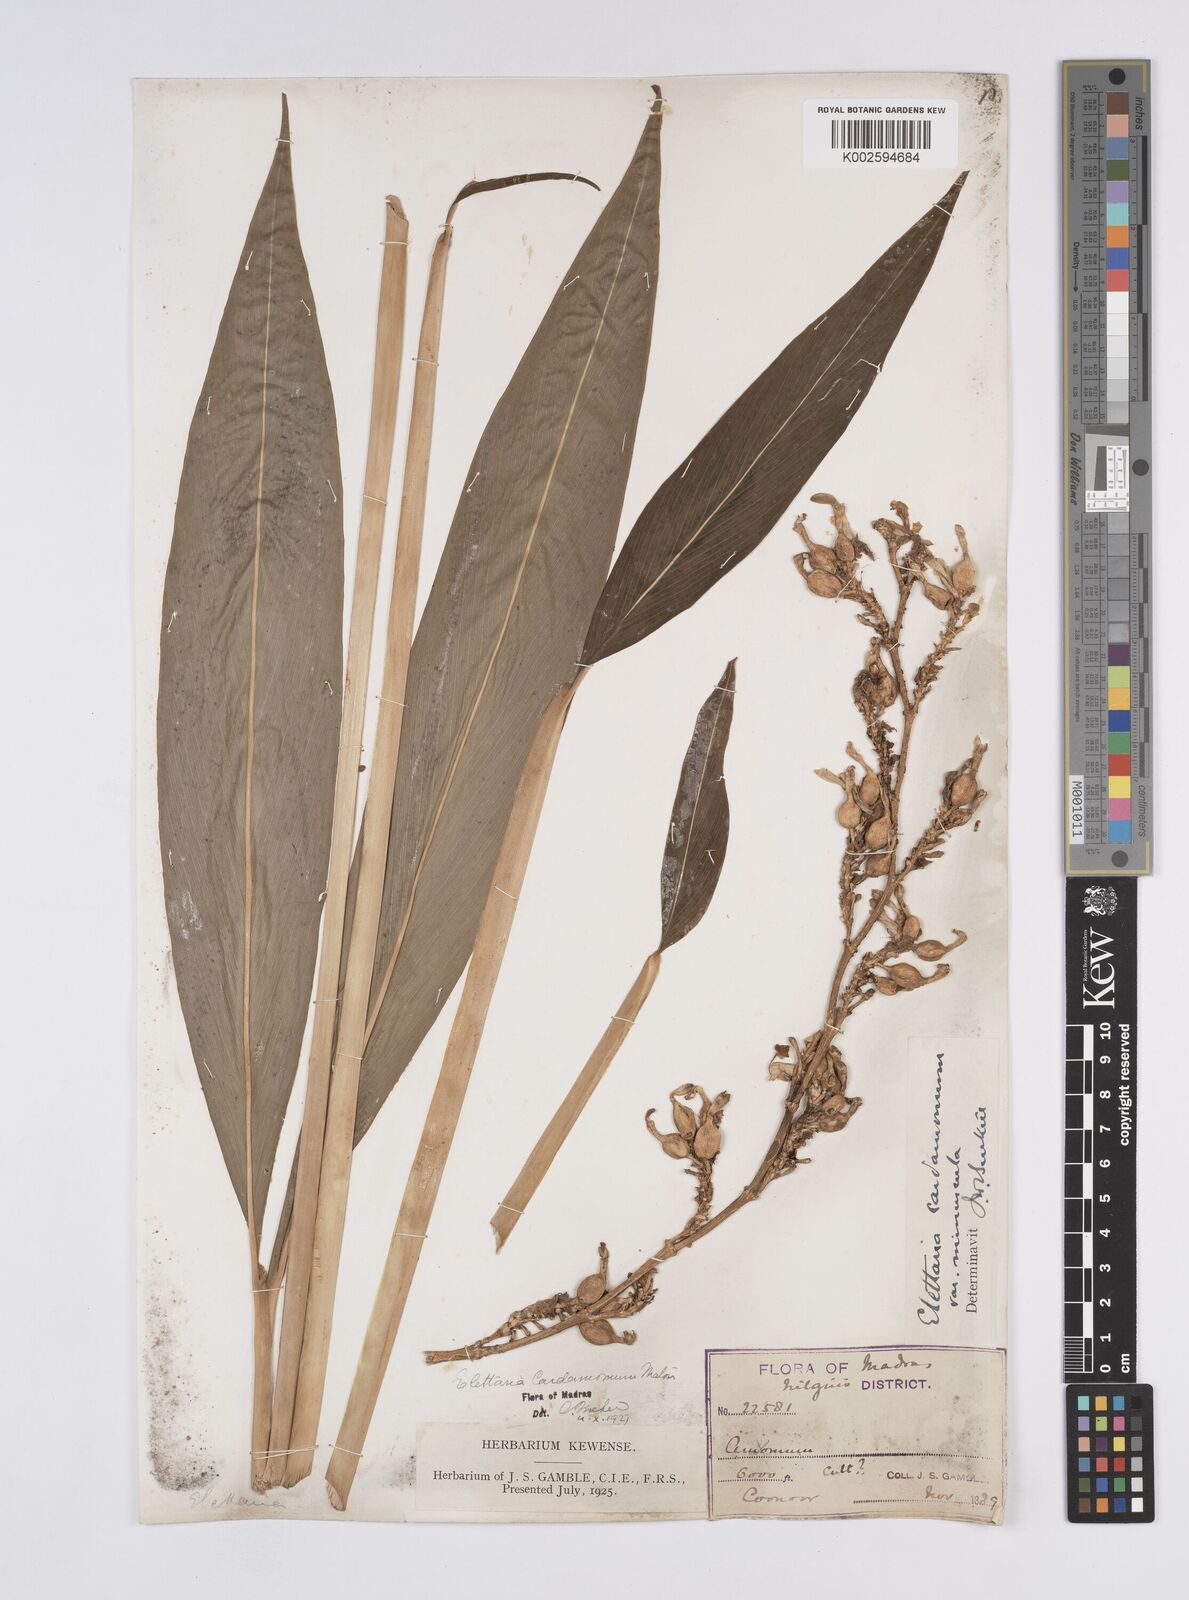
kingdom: Plantae
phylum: Tracheophyta
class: Liliopsida
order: Zingiberales
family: Zingiberaceae
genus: Elettaria
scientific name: Elettaria cardamomum
